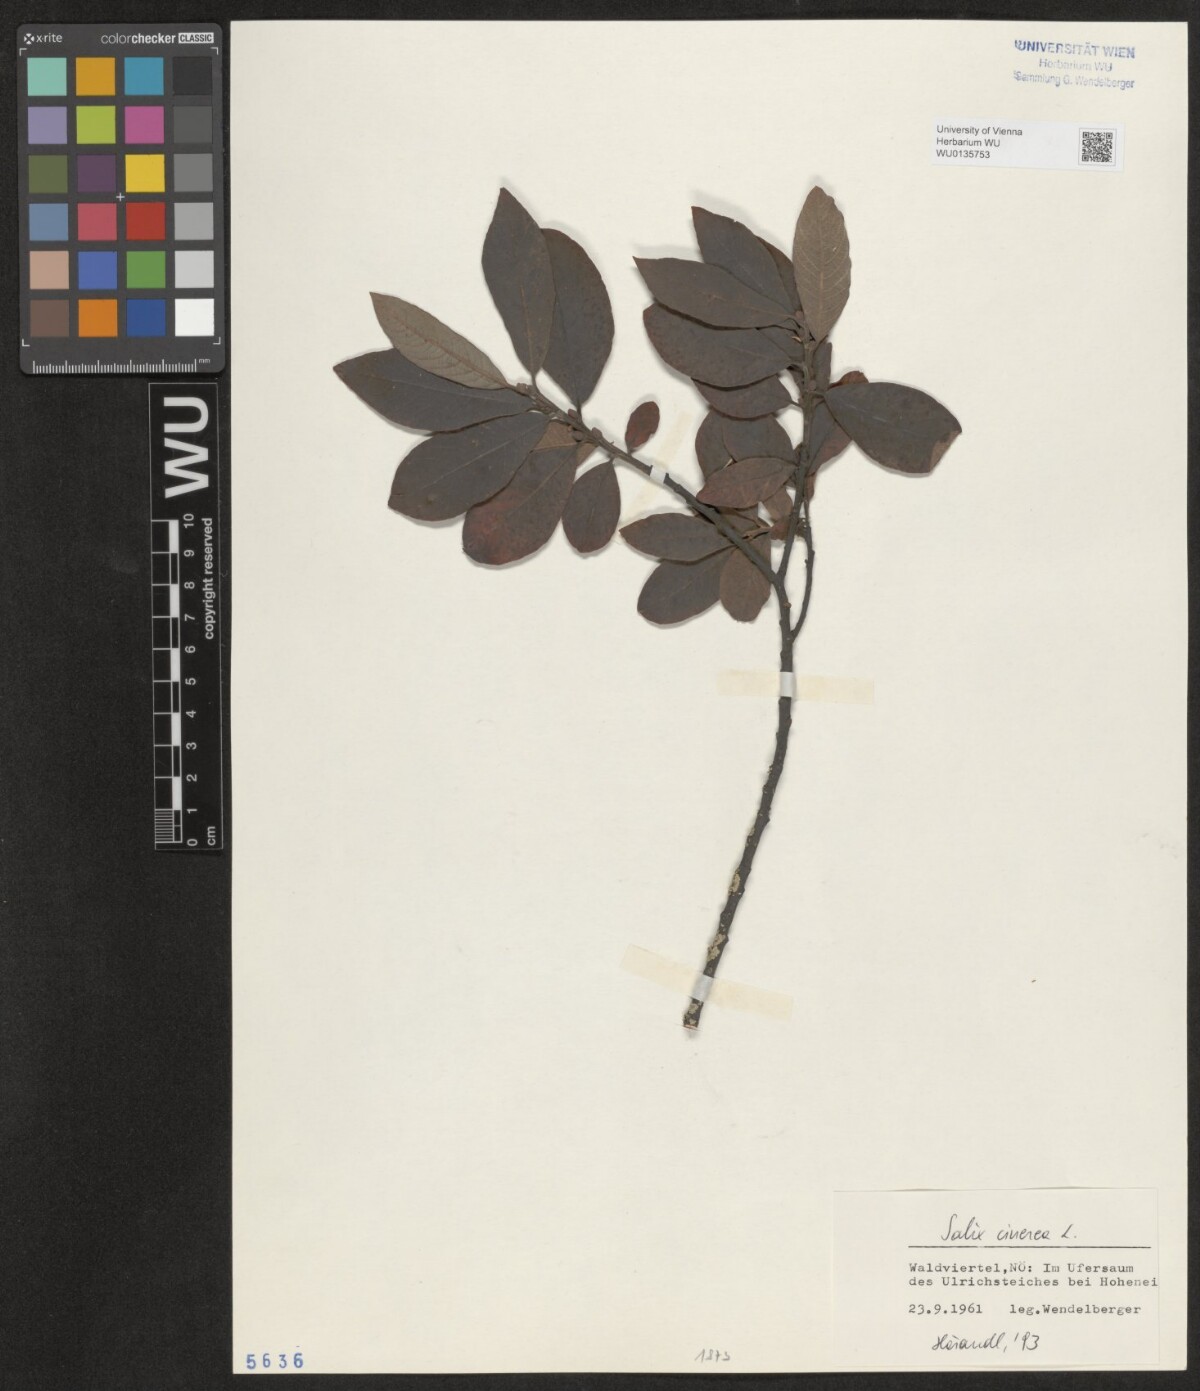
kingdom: Plantae
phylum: Tracheophyta
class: Magnoliopsida
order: Malpighiales
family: Salicaceae
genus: Salix
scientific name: Salix cinerea
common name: Common sallow
